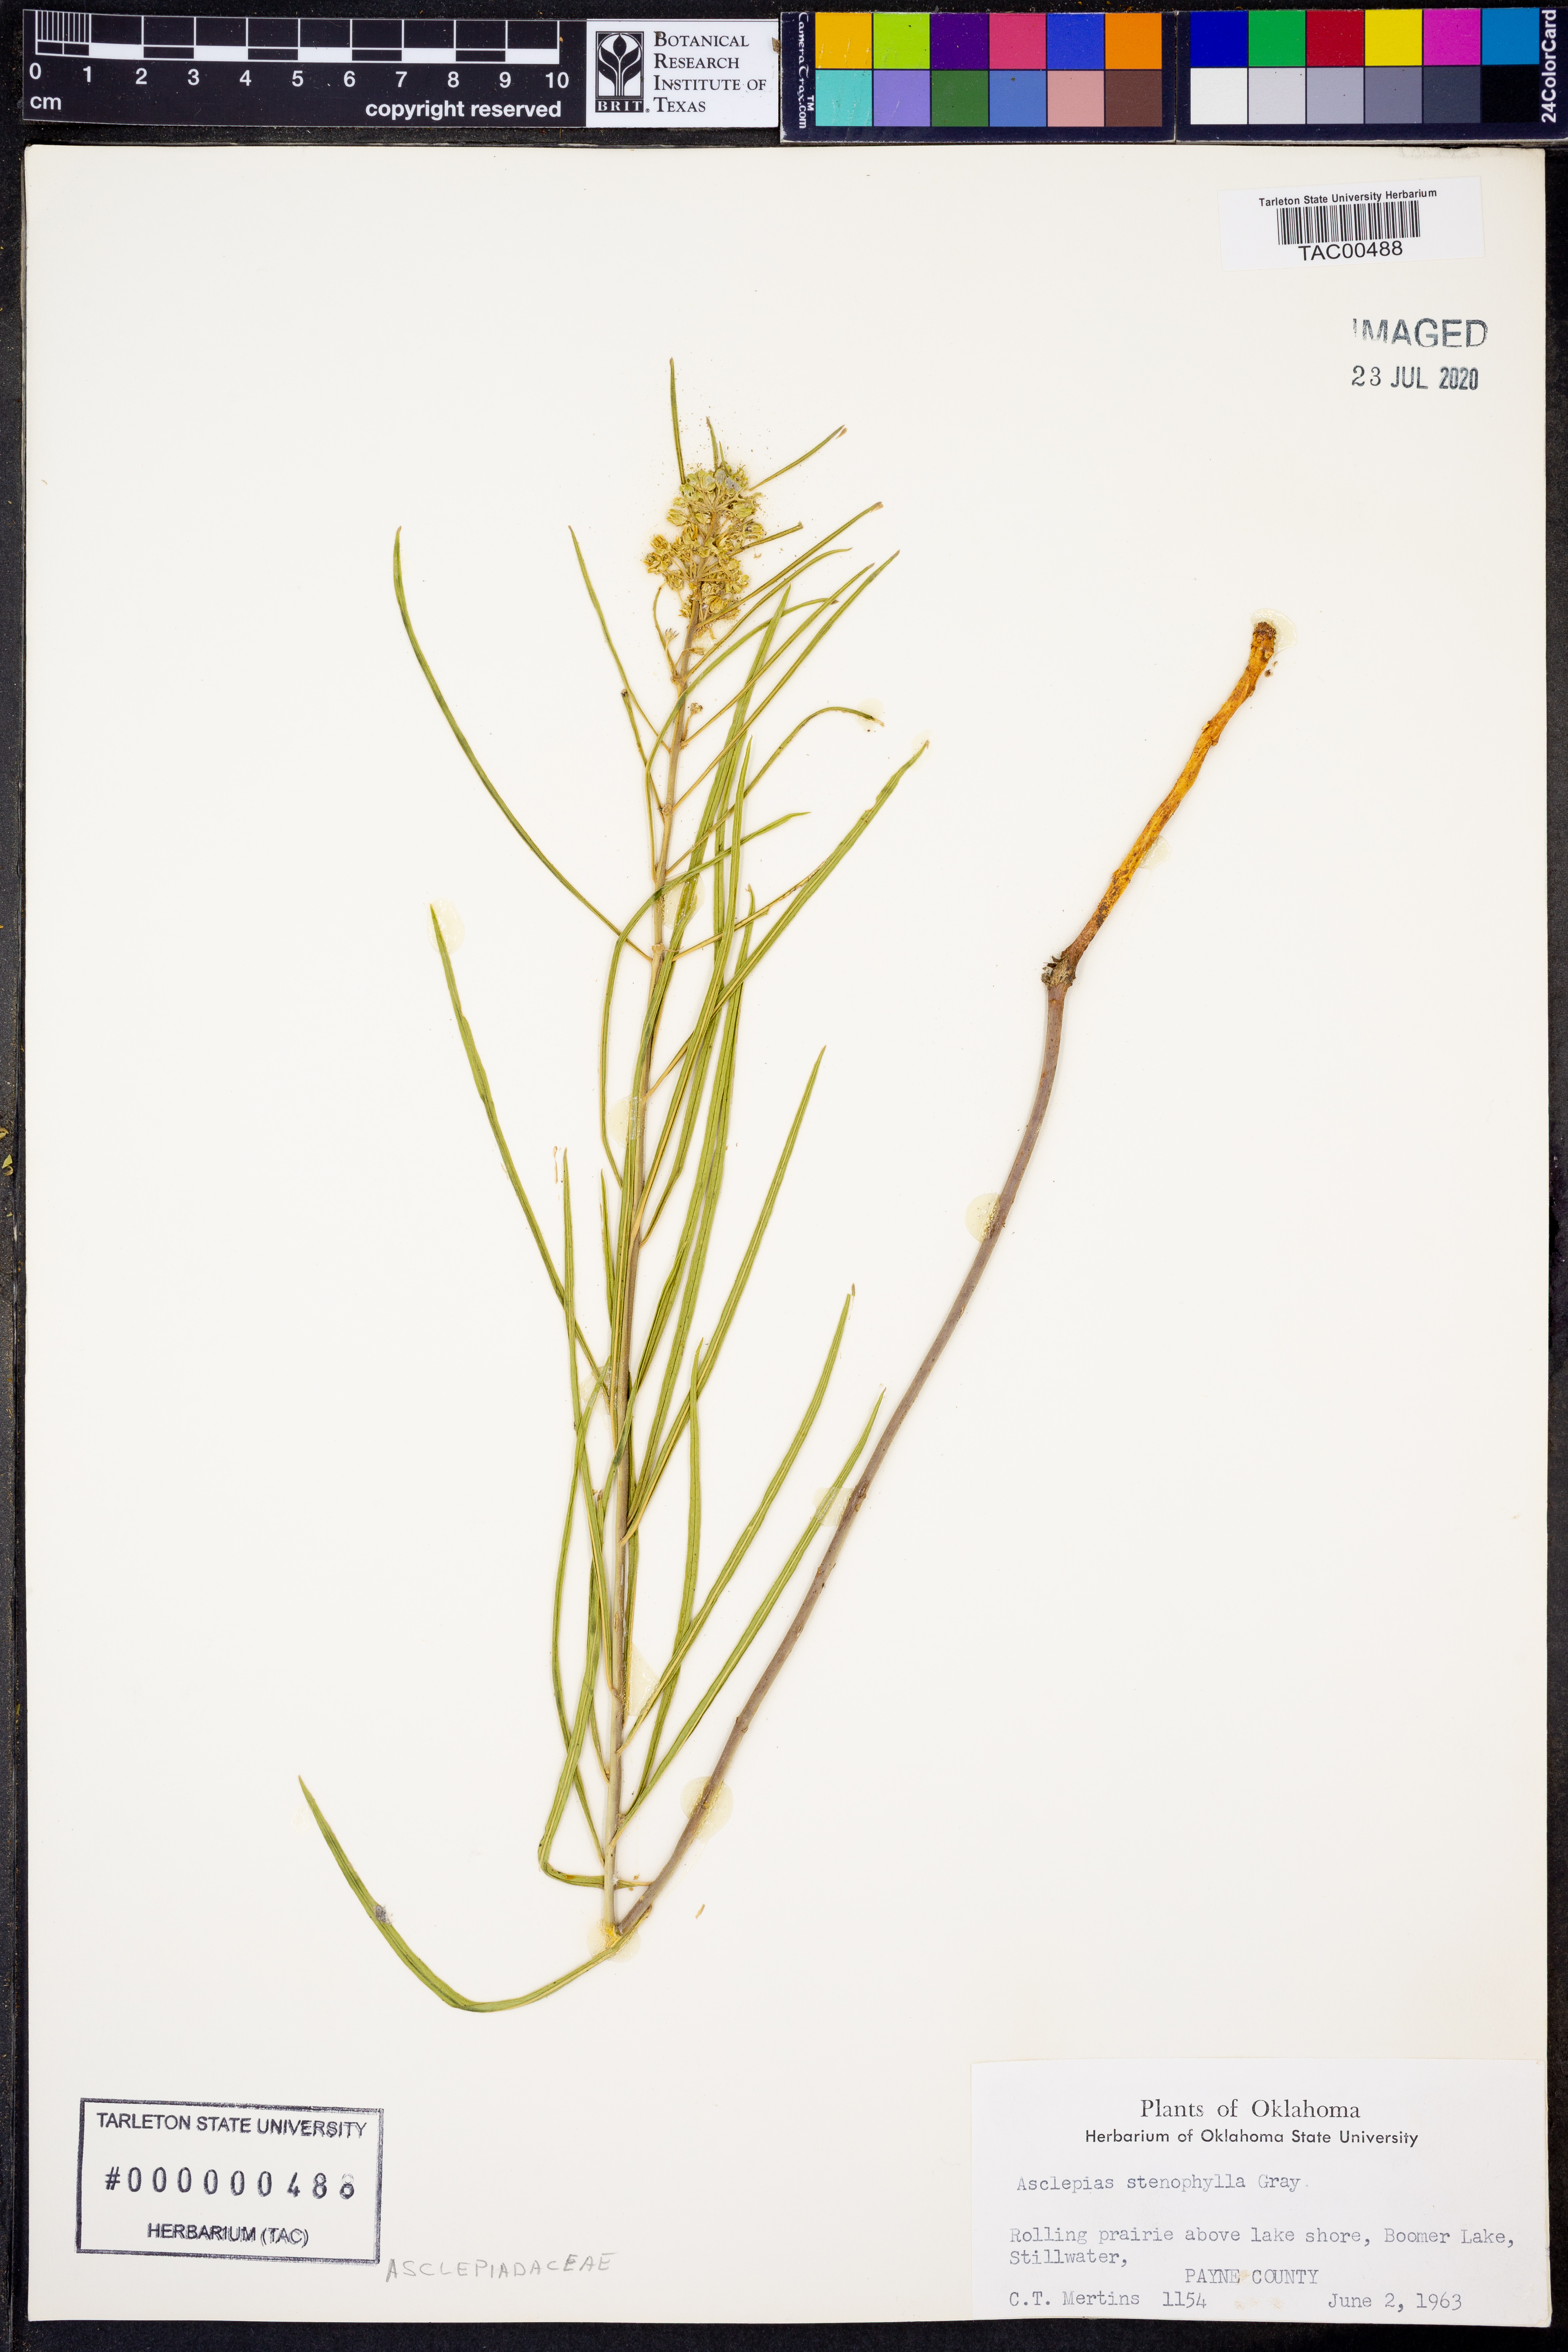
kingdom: Plantae
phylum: Tracheophyta
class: Magnoliopsida
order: Gentianales
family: Apocynaceae
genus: Asclepias
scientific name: Asclepias stenophylla
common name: Narrow-leaf milkweed
